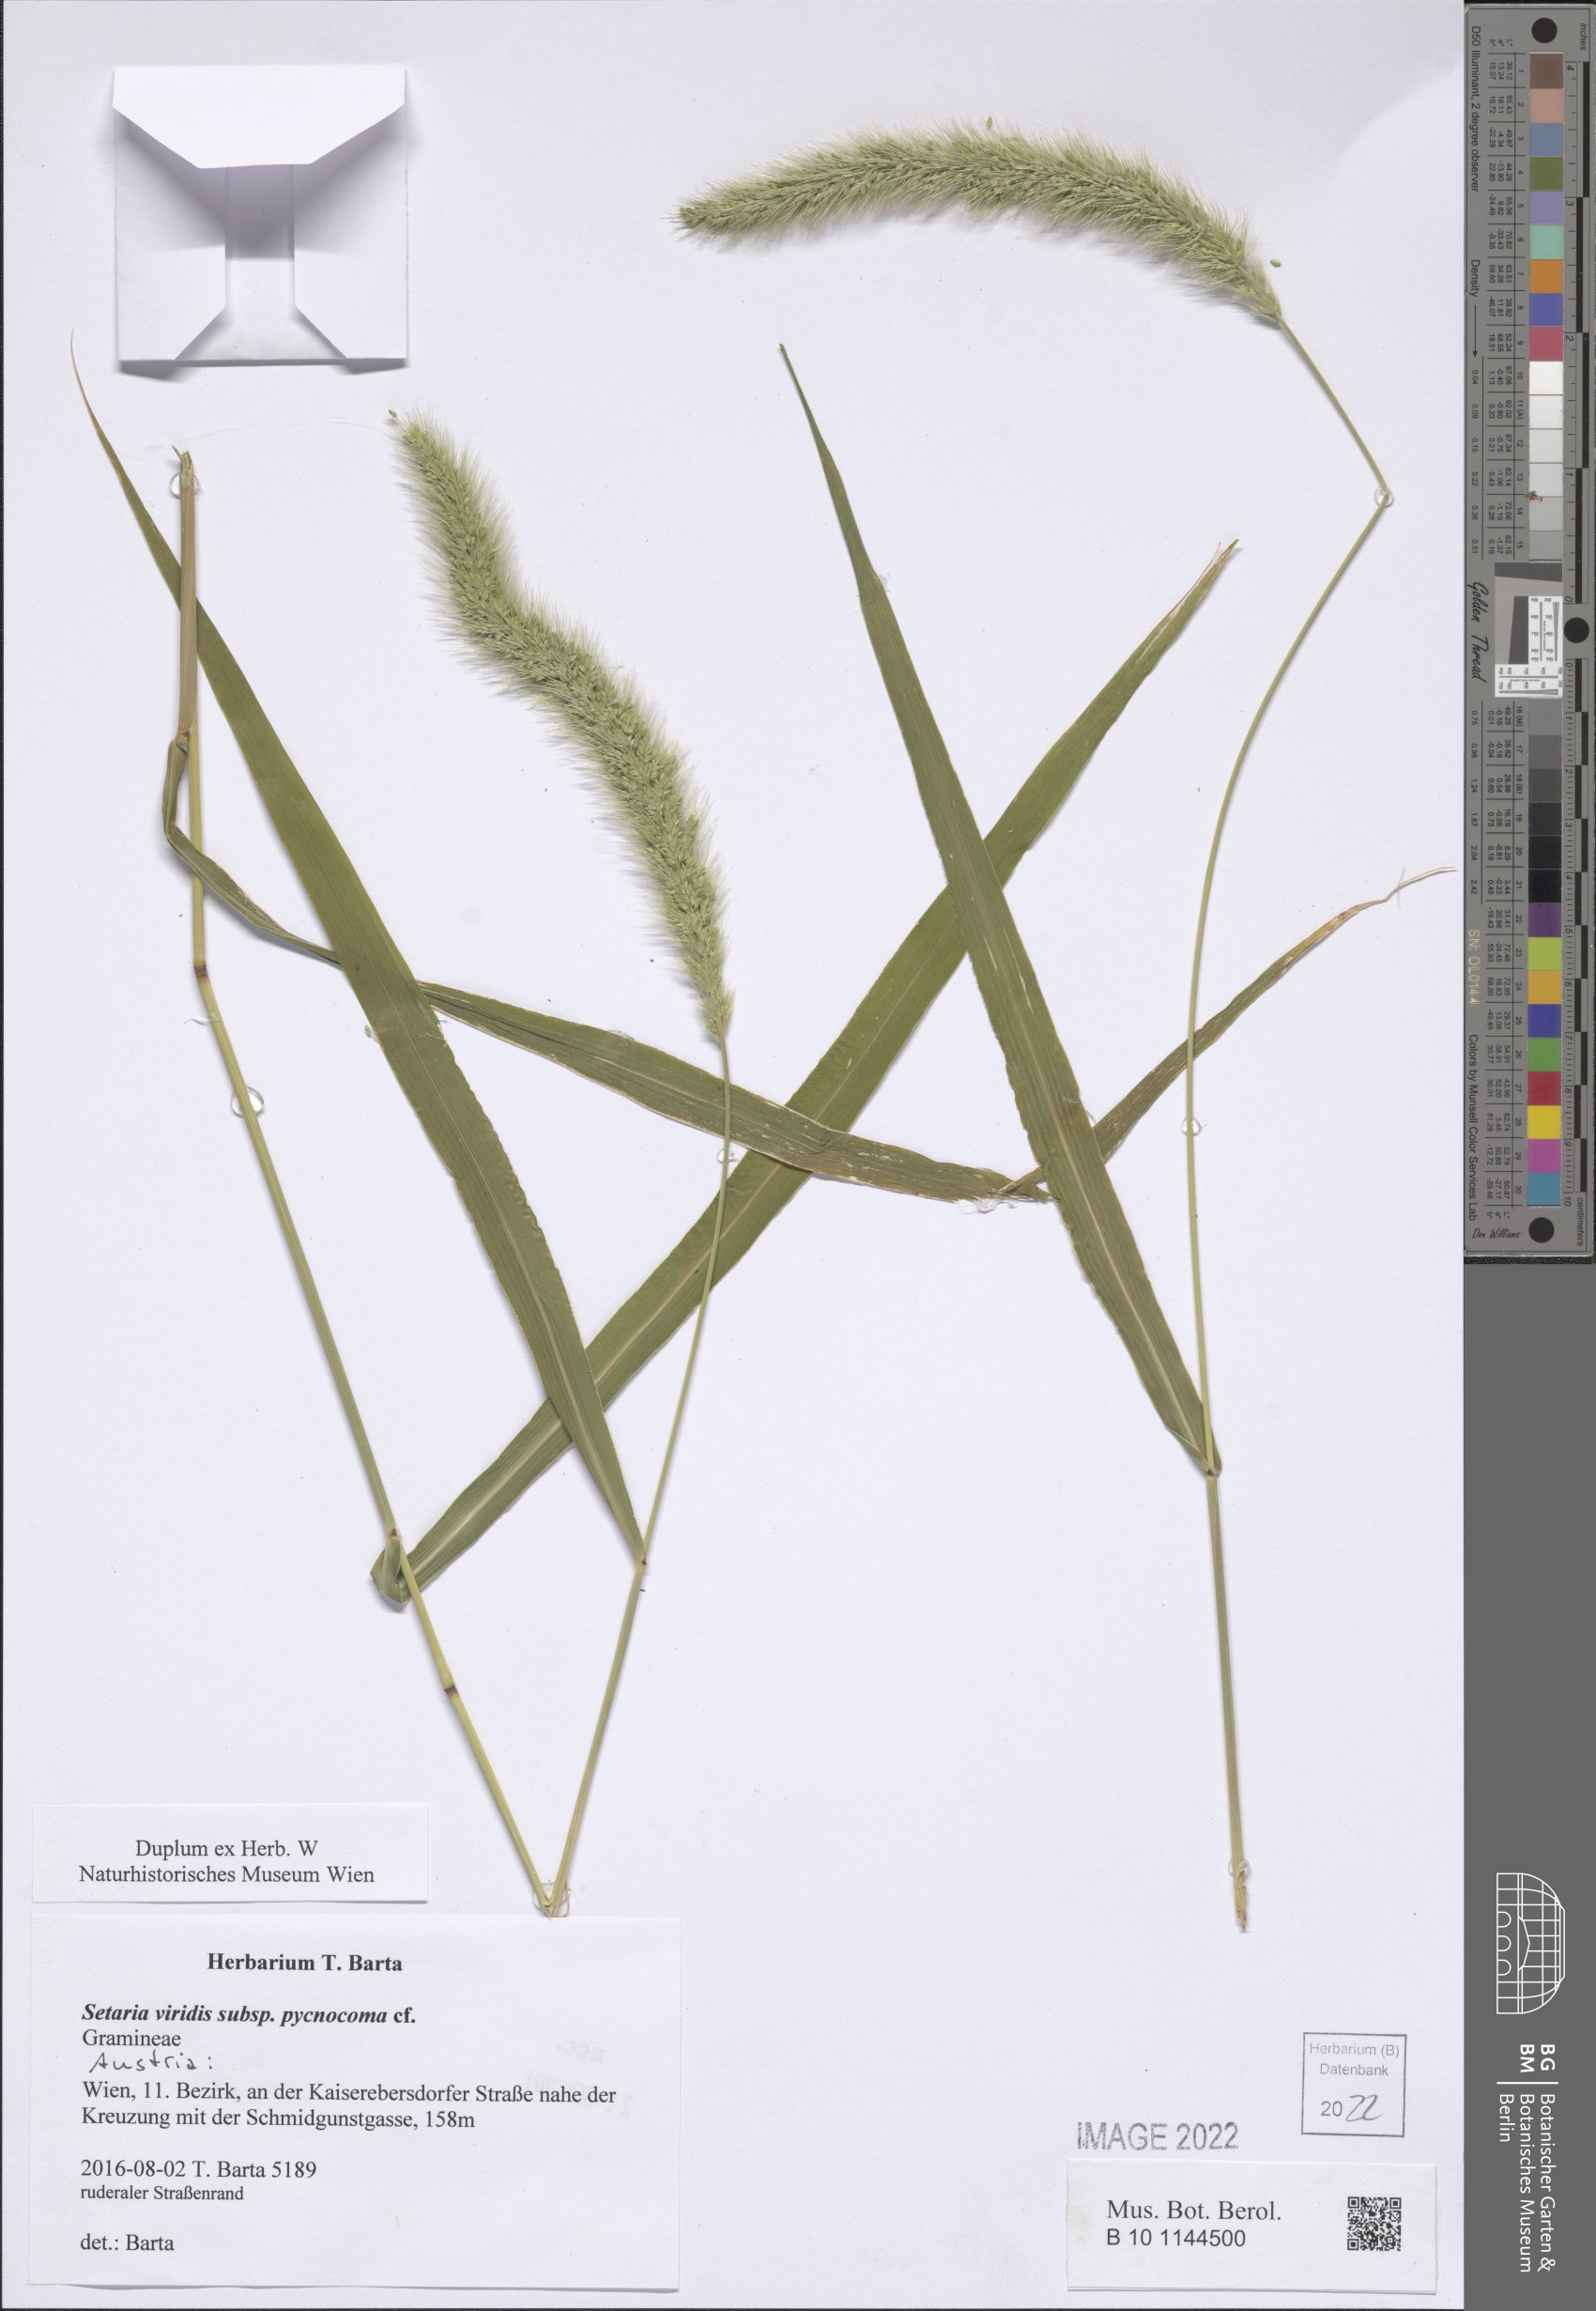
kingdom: Plantae
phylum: Tracheophyta
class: Liliopsida
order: Poales
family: Poaceae
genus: Setaria
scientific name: Setaria viridis
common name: Green bristlegrass
